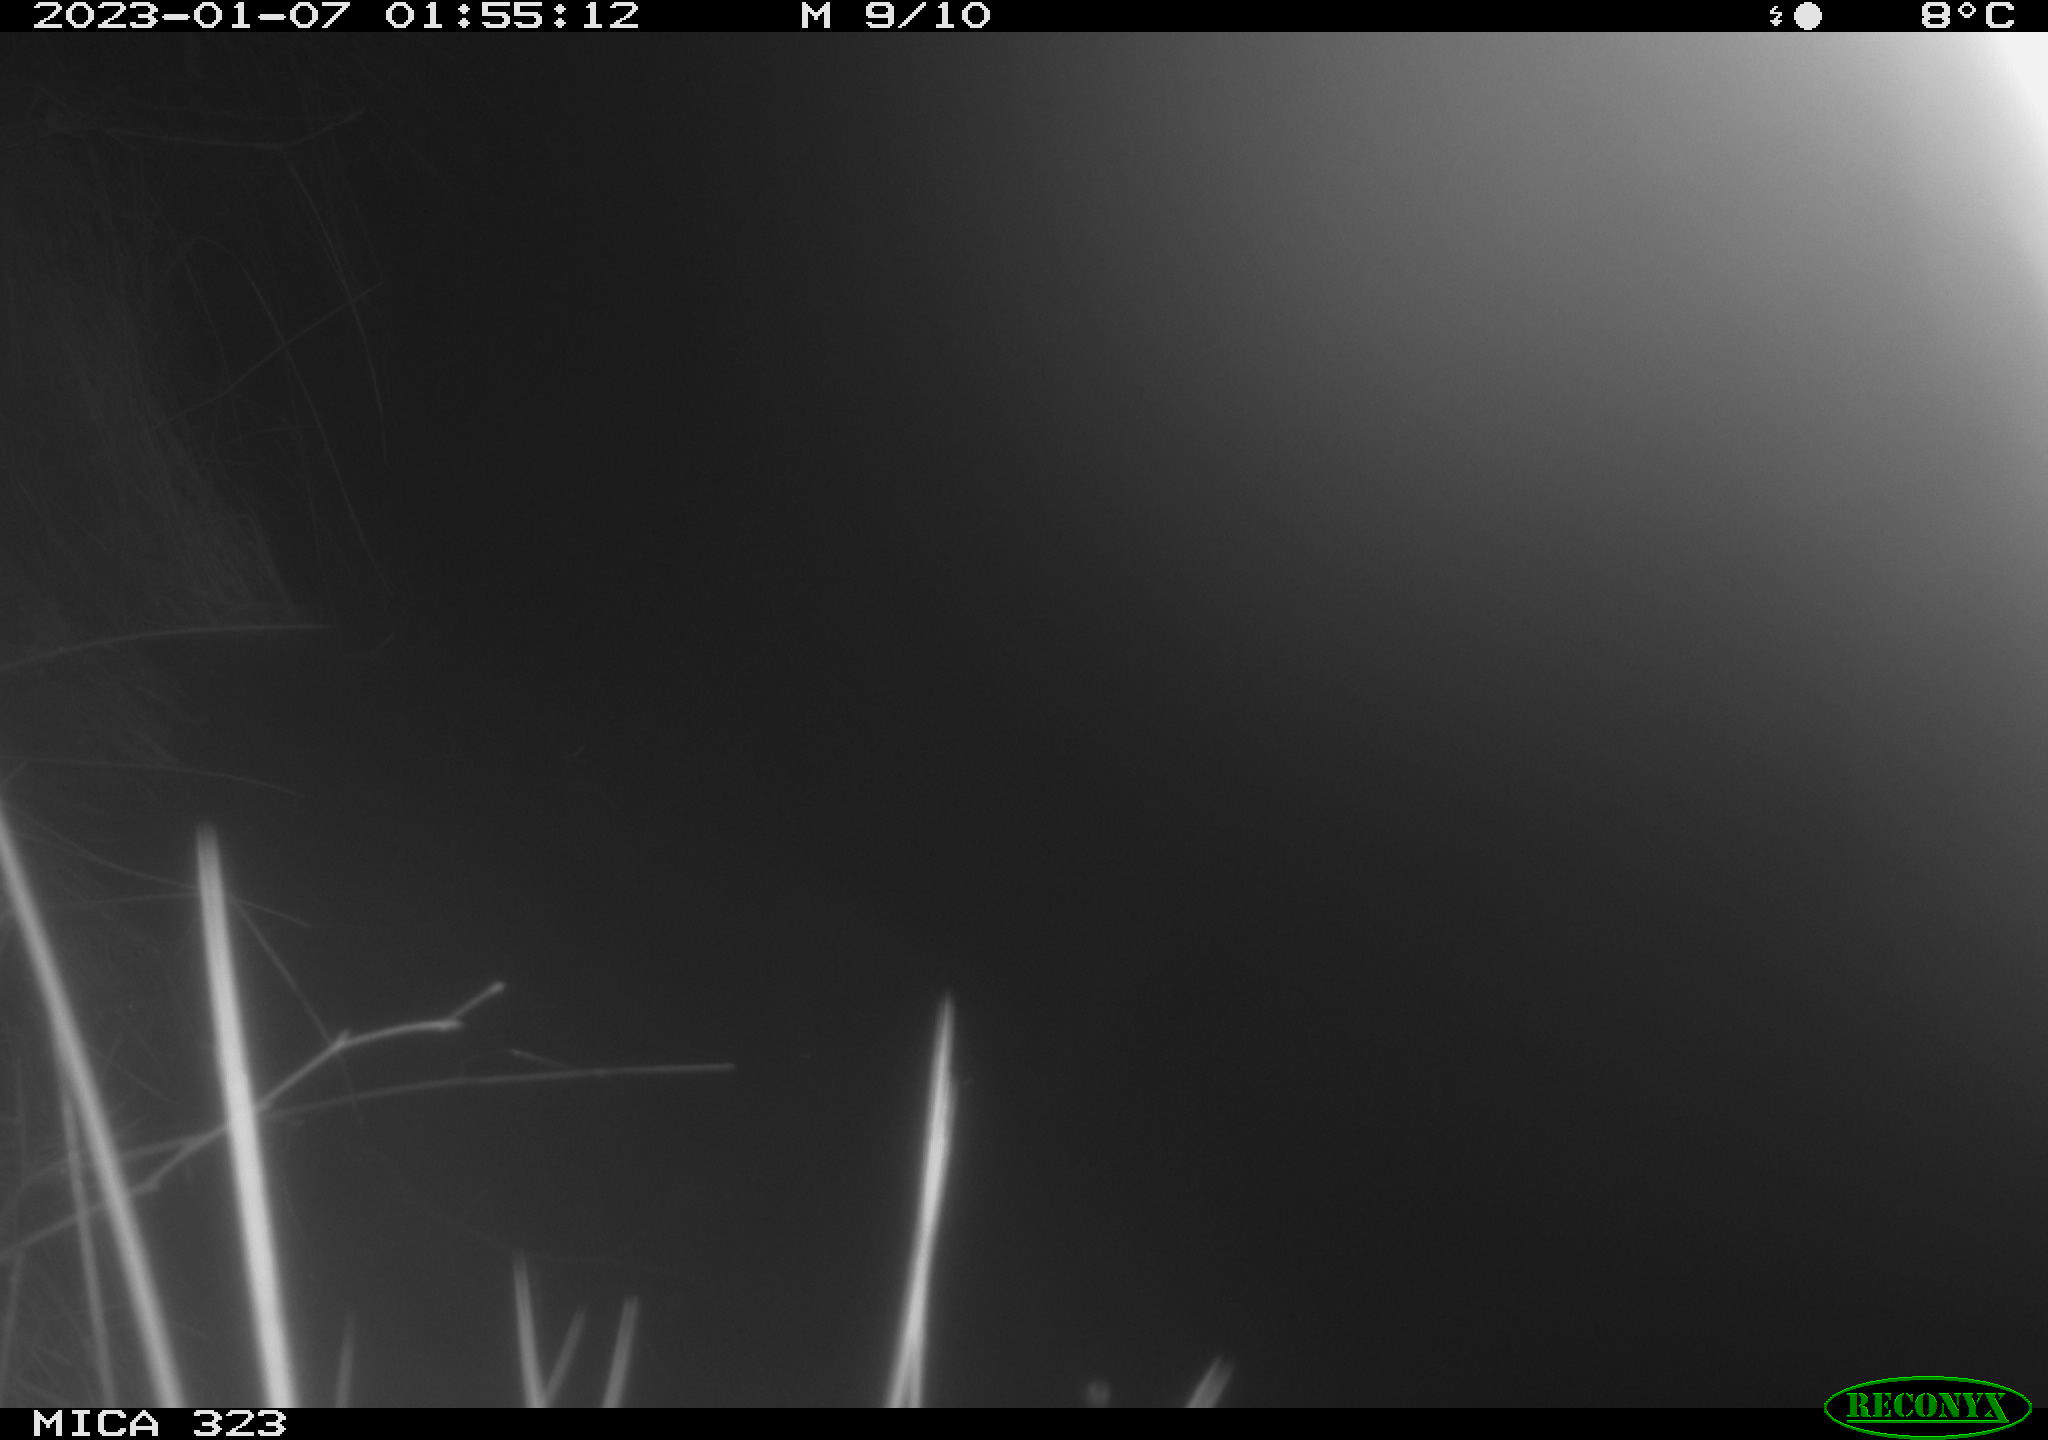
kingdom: Animalia
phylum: Chordata
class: Mammalia
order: Rodentia
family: Cricetidae
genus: Ondatra
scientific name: Ondatra zibethicus
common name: Muskrat
